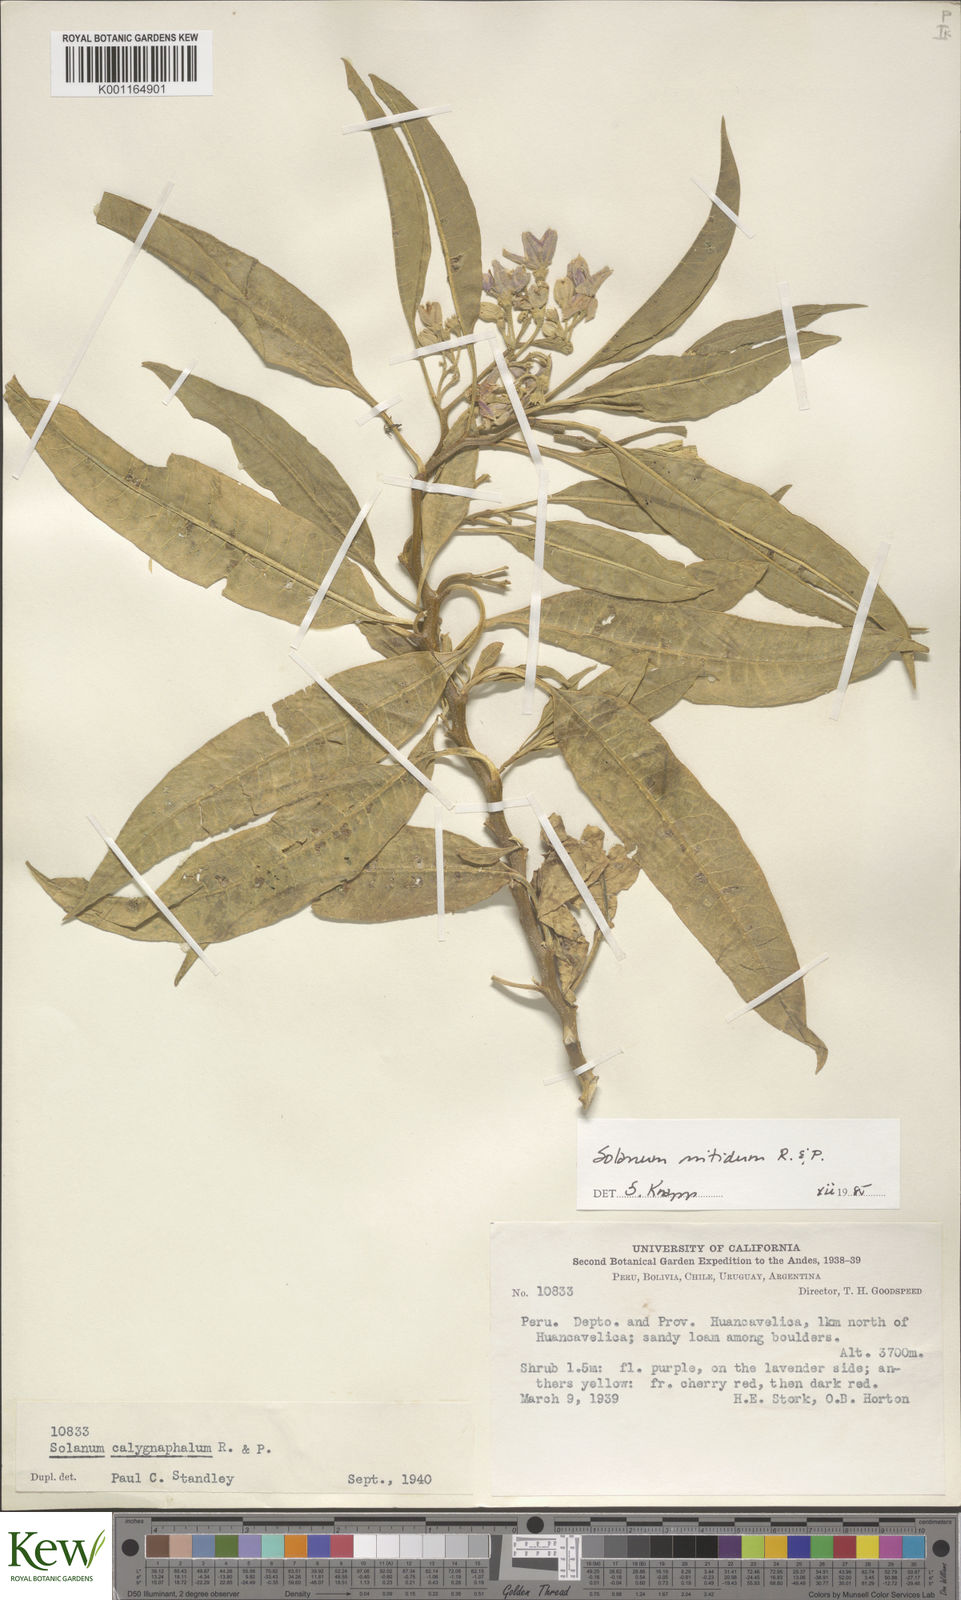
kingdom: Plantae
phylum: Tracheophyta
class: Magnoliopsida
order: Solanales
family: Solanaceae
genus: Solanum
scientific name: Solanum nitidum
